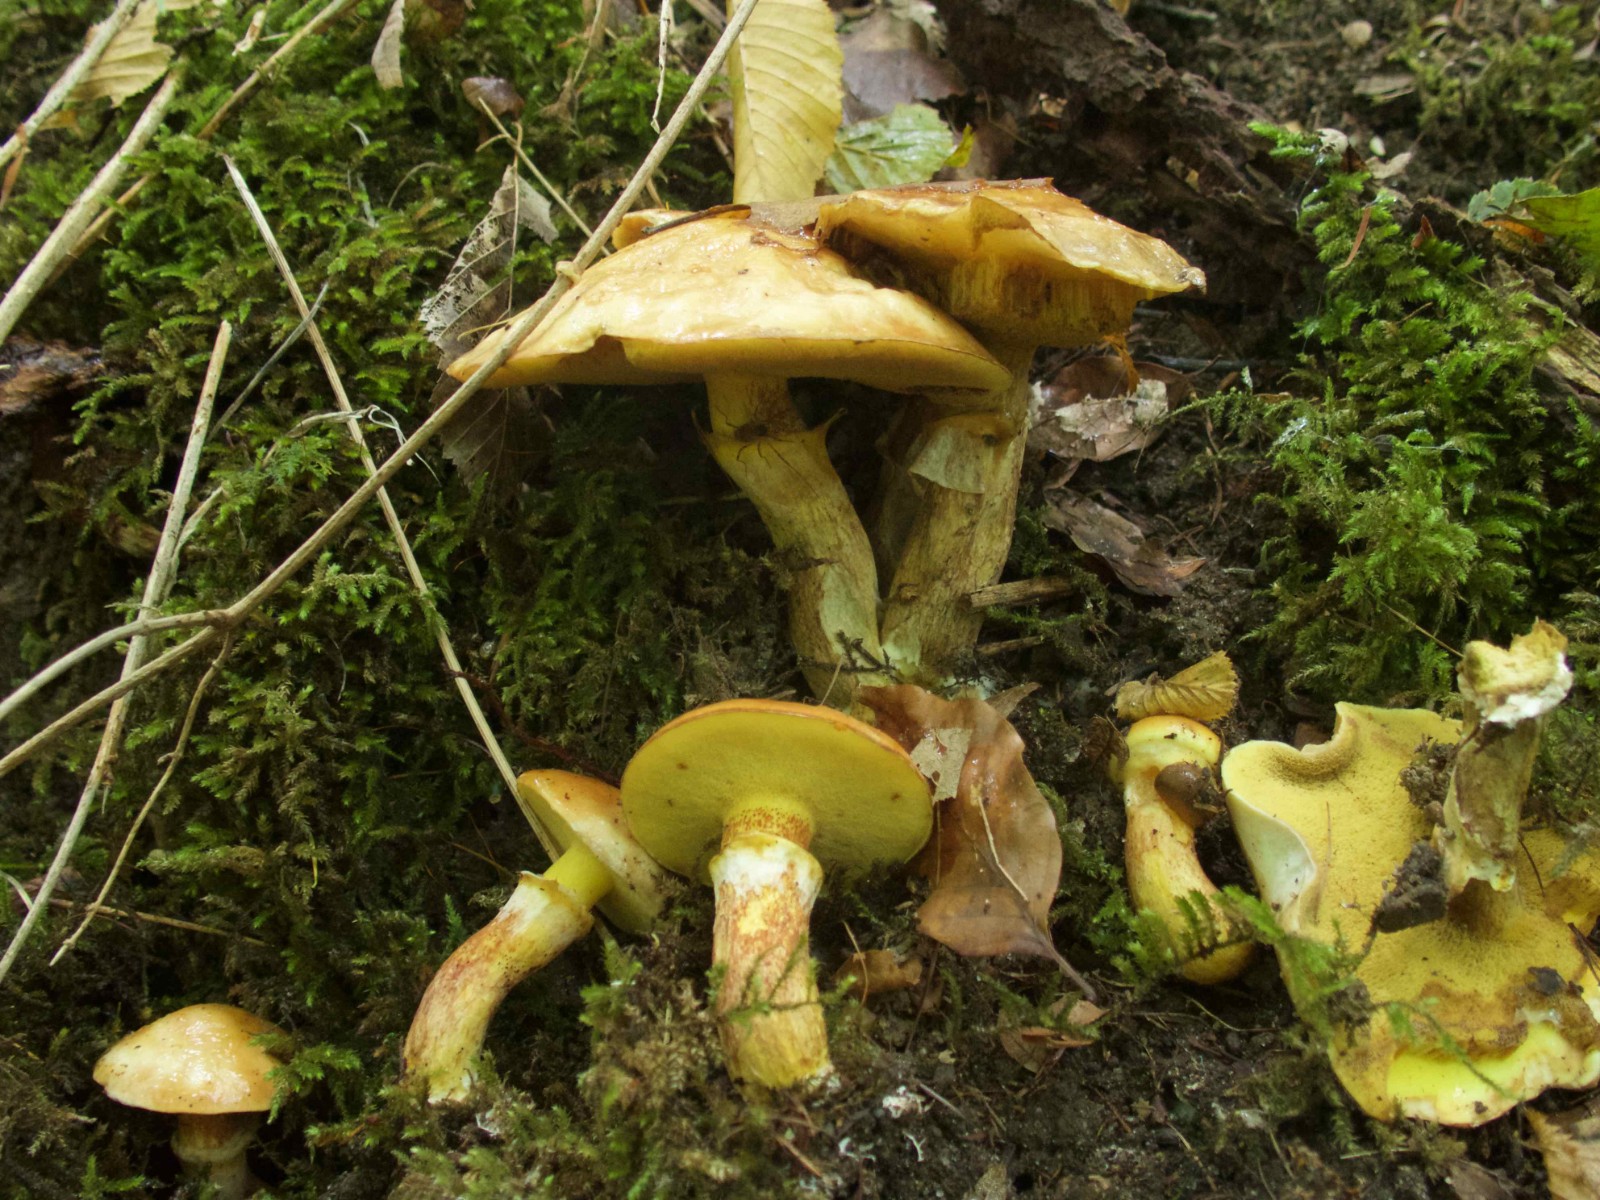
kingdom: Fungi
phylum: Basidiomycota
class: Agaricomycetes
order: Boletales
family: Suillaceae
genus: Suillus
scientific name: Suillus grevillei
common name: lærke-slimrørhat
